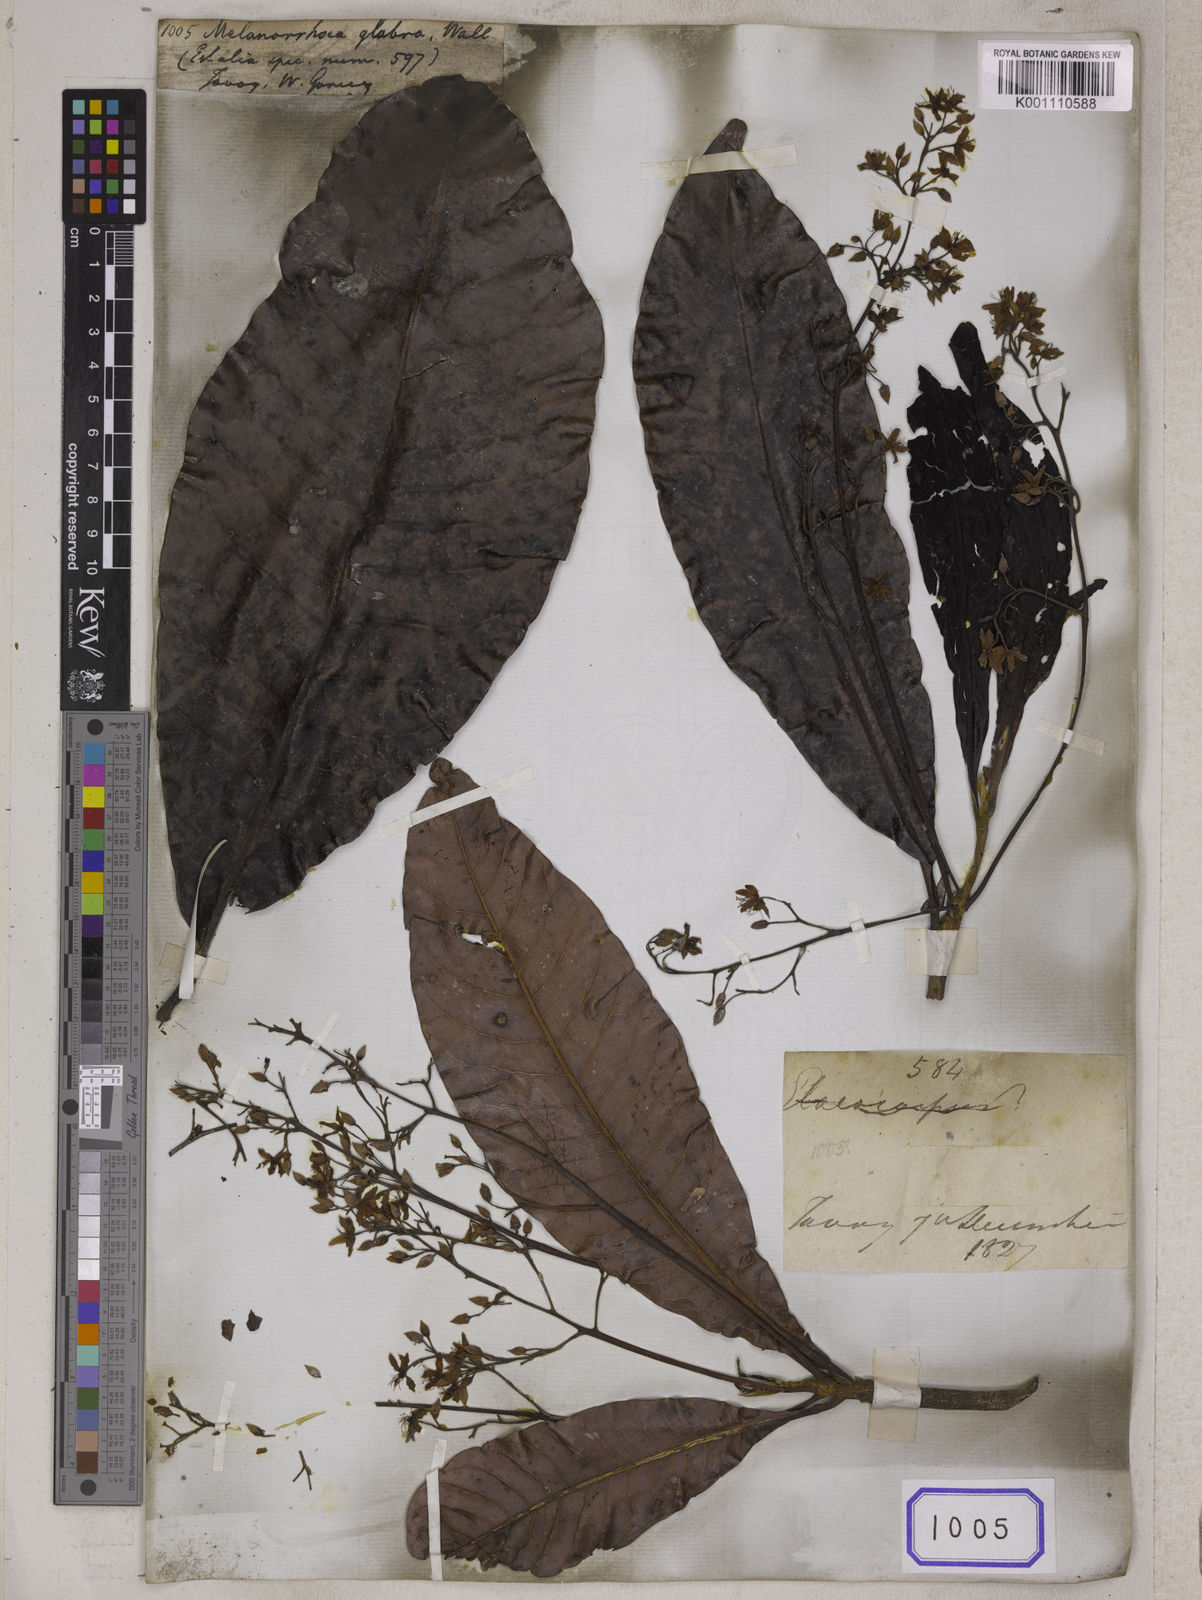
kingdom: Plantae
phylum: Tracheophyta
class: Magnoliopsida
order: Sapindales
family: Anacardiaceae
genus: Gluta
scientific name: Gluta glabra
